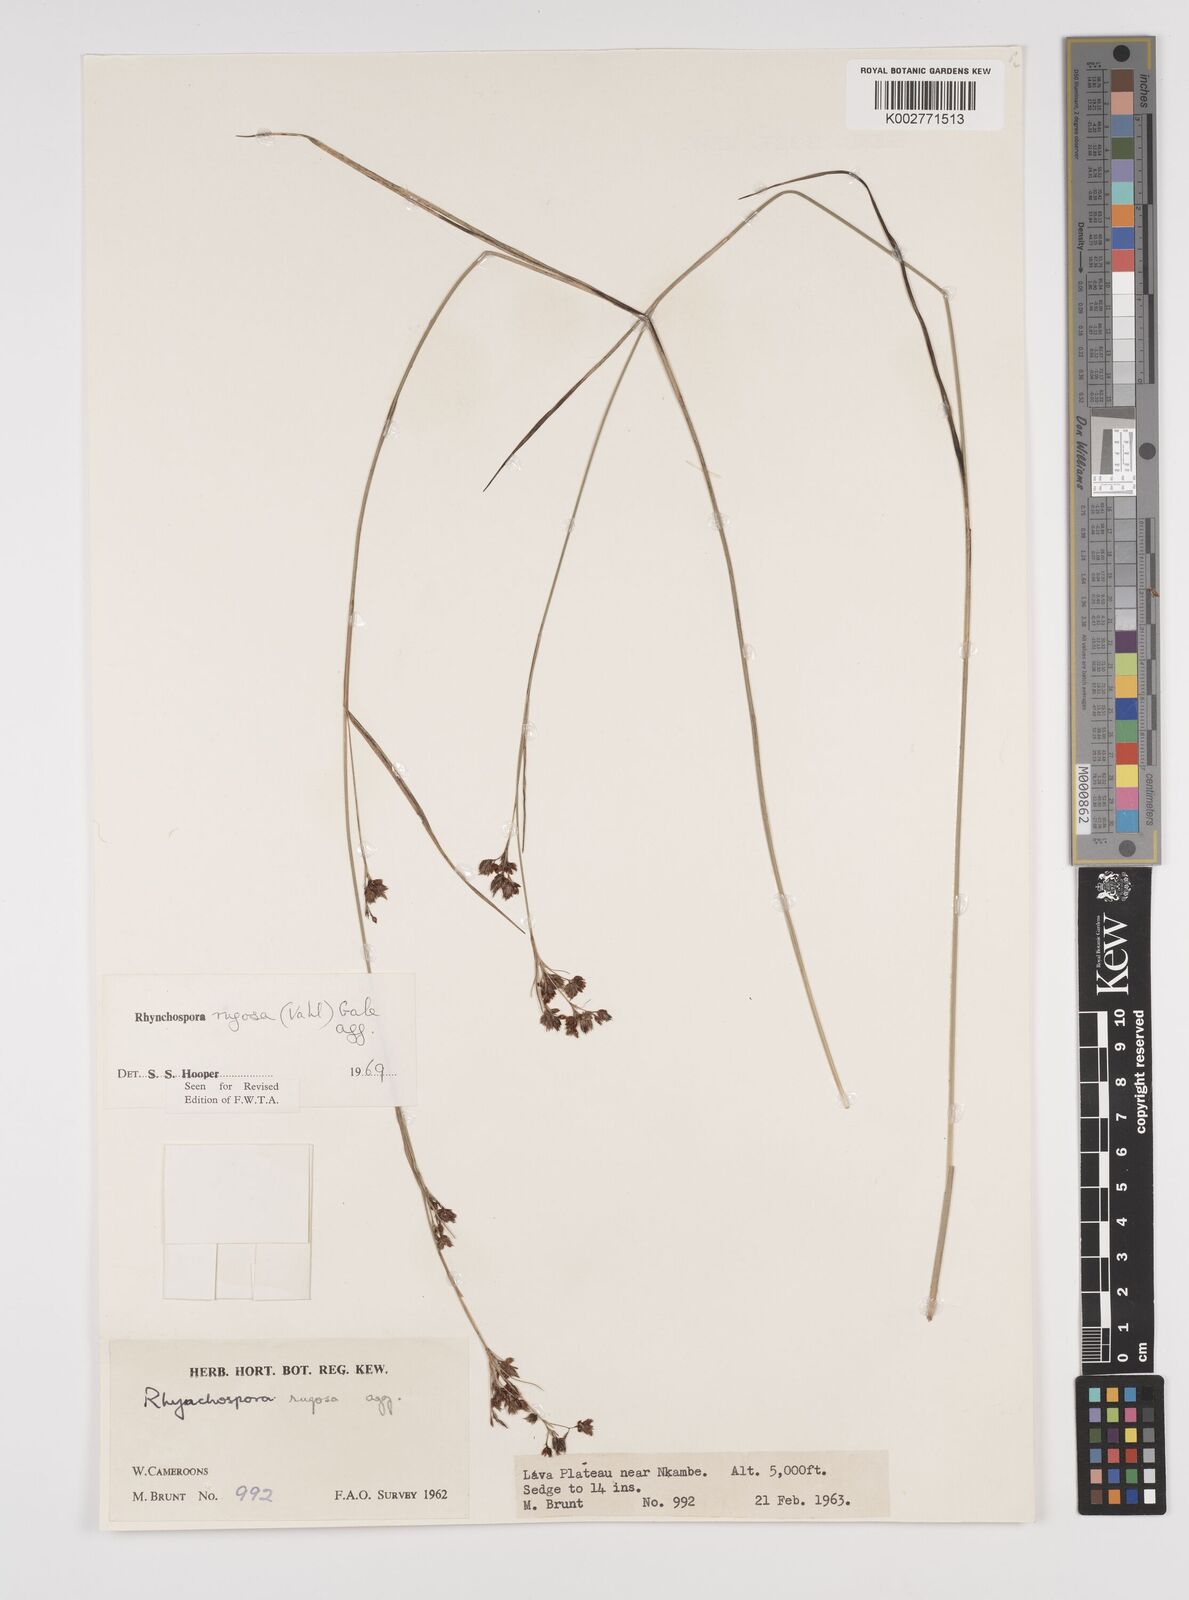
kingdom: Plantae
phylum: Tracheophyta
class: Liliopsida
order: Poales
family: Cyperaceae
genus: Rhynchospora
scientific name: Rhynchospora rugosa
